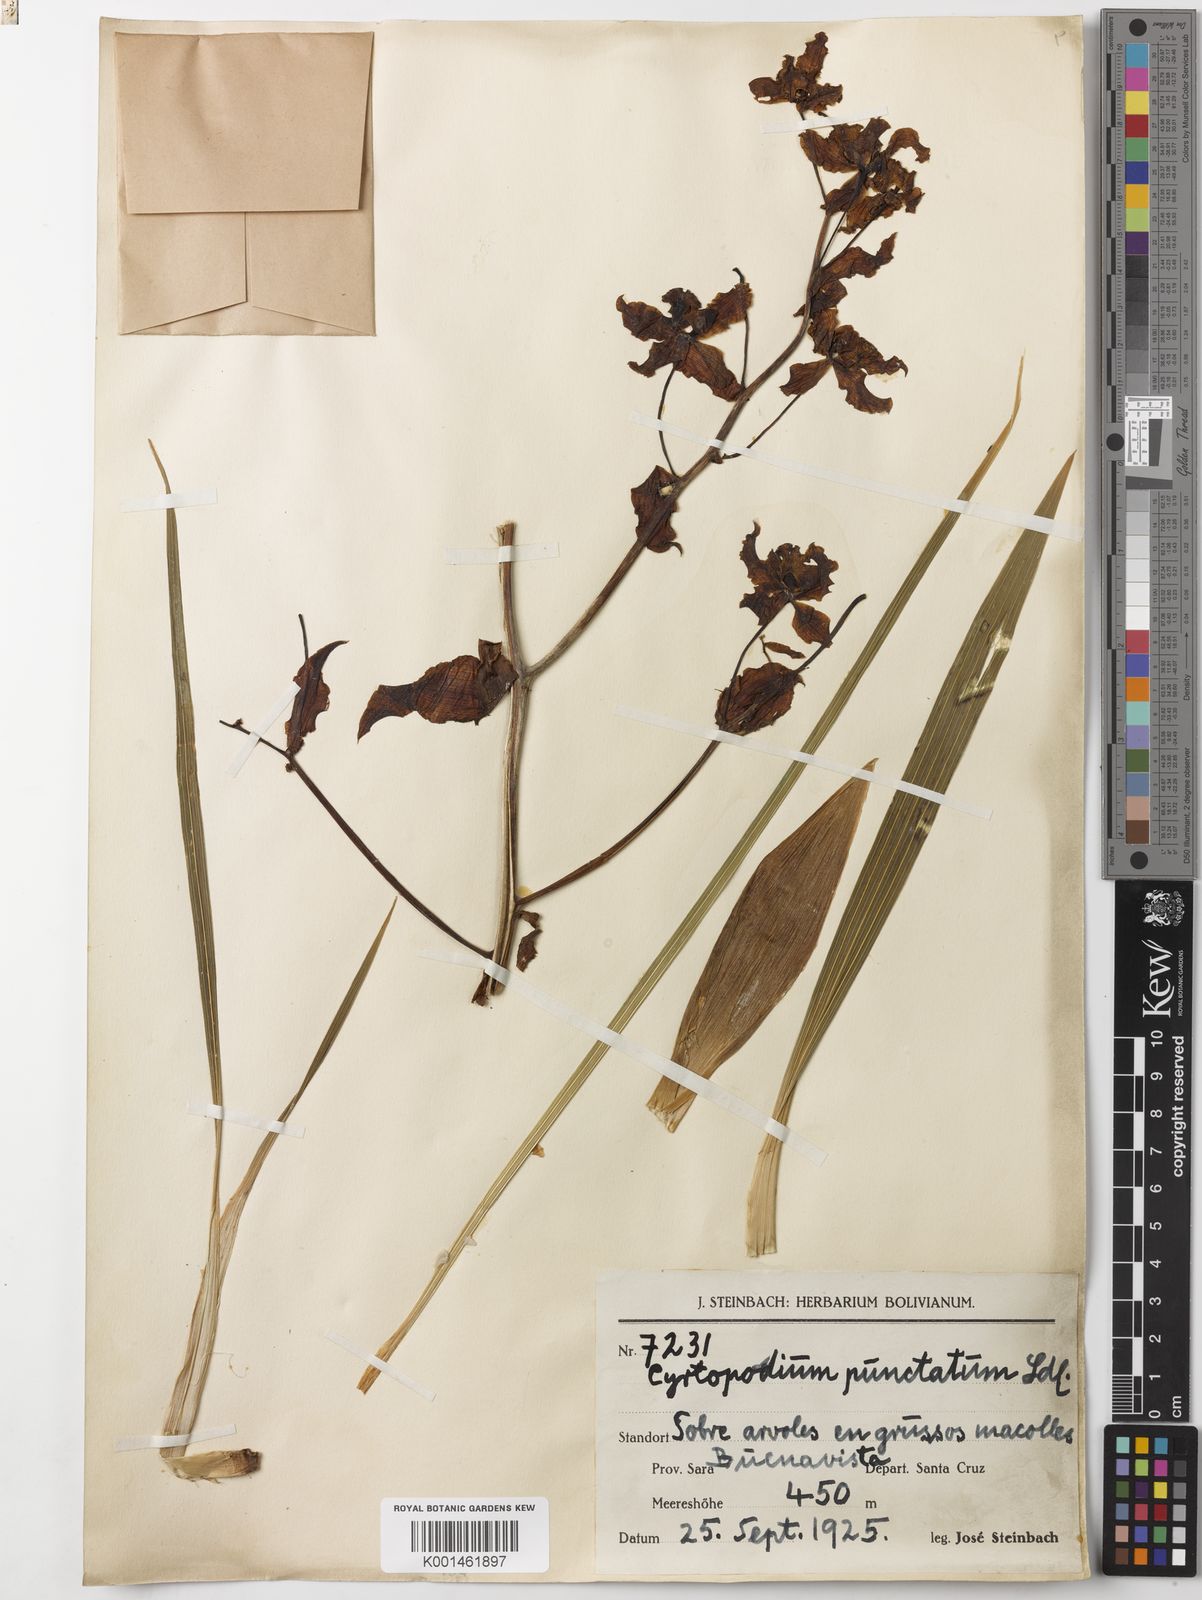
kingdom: Plantae
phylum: Tracheophyta
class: Liliopsida
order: Asparagales
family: Orchidaceae
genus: Cyrtopodium
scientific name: Cyrtopodium punctatum
